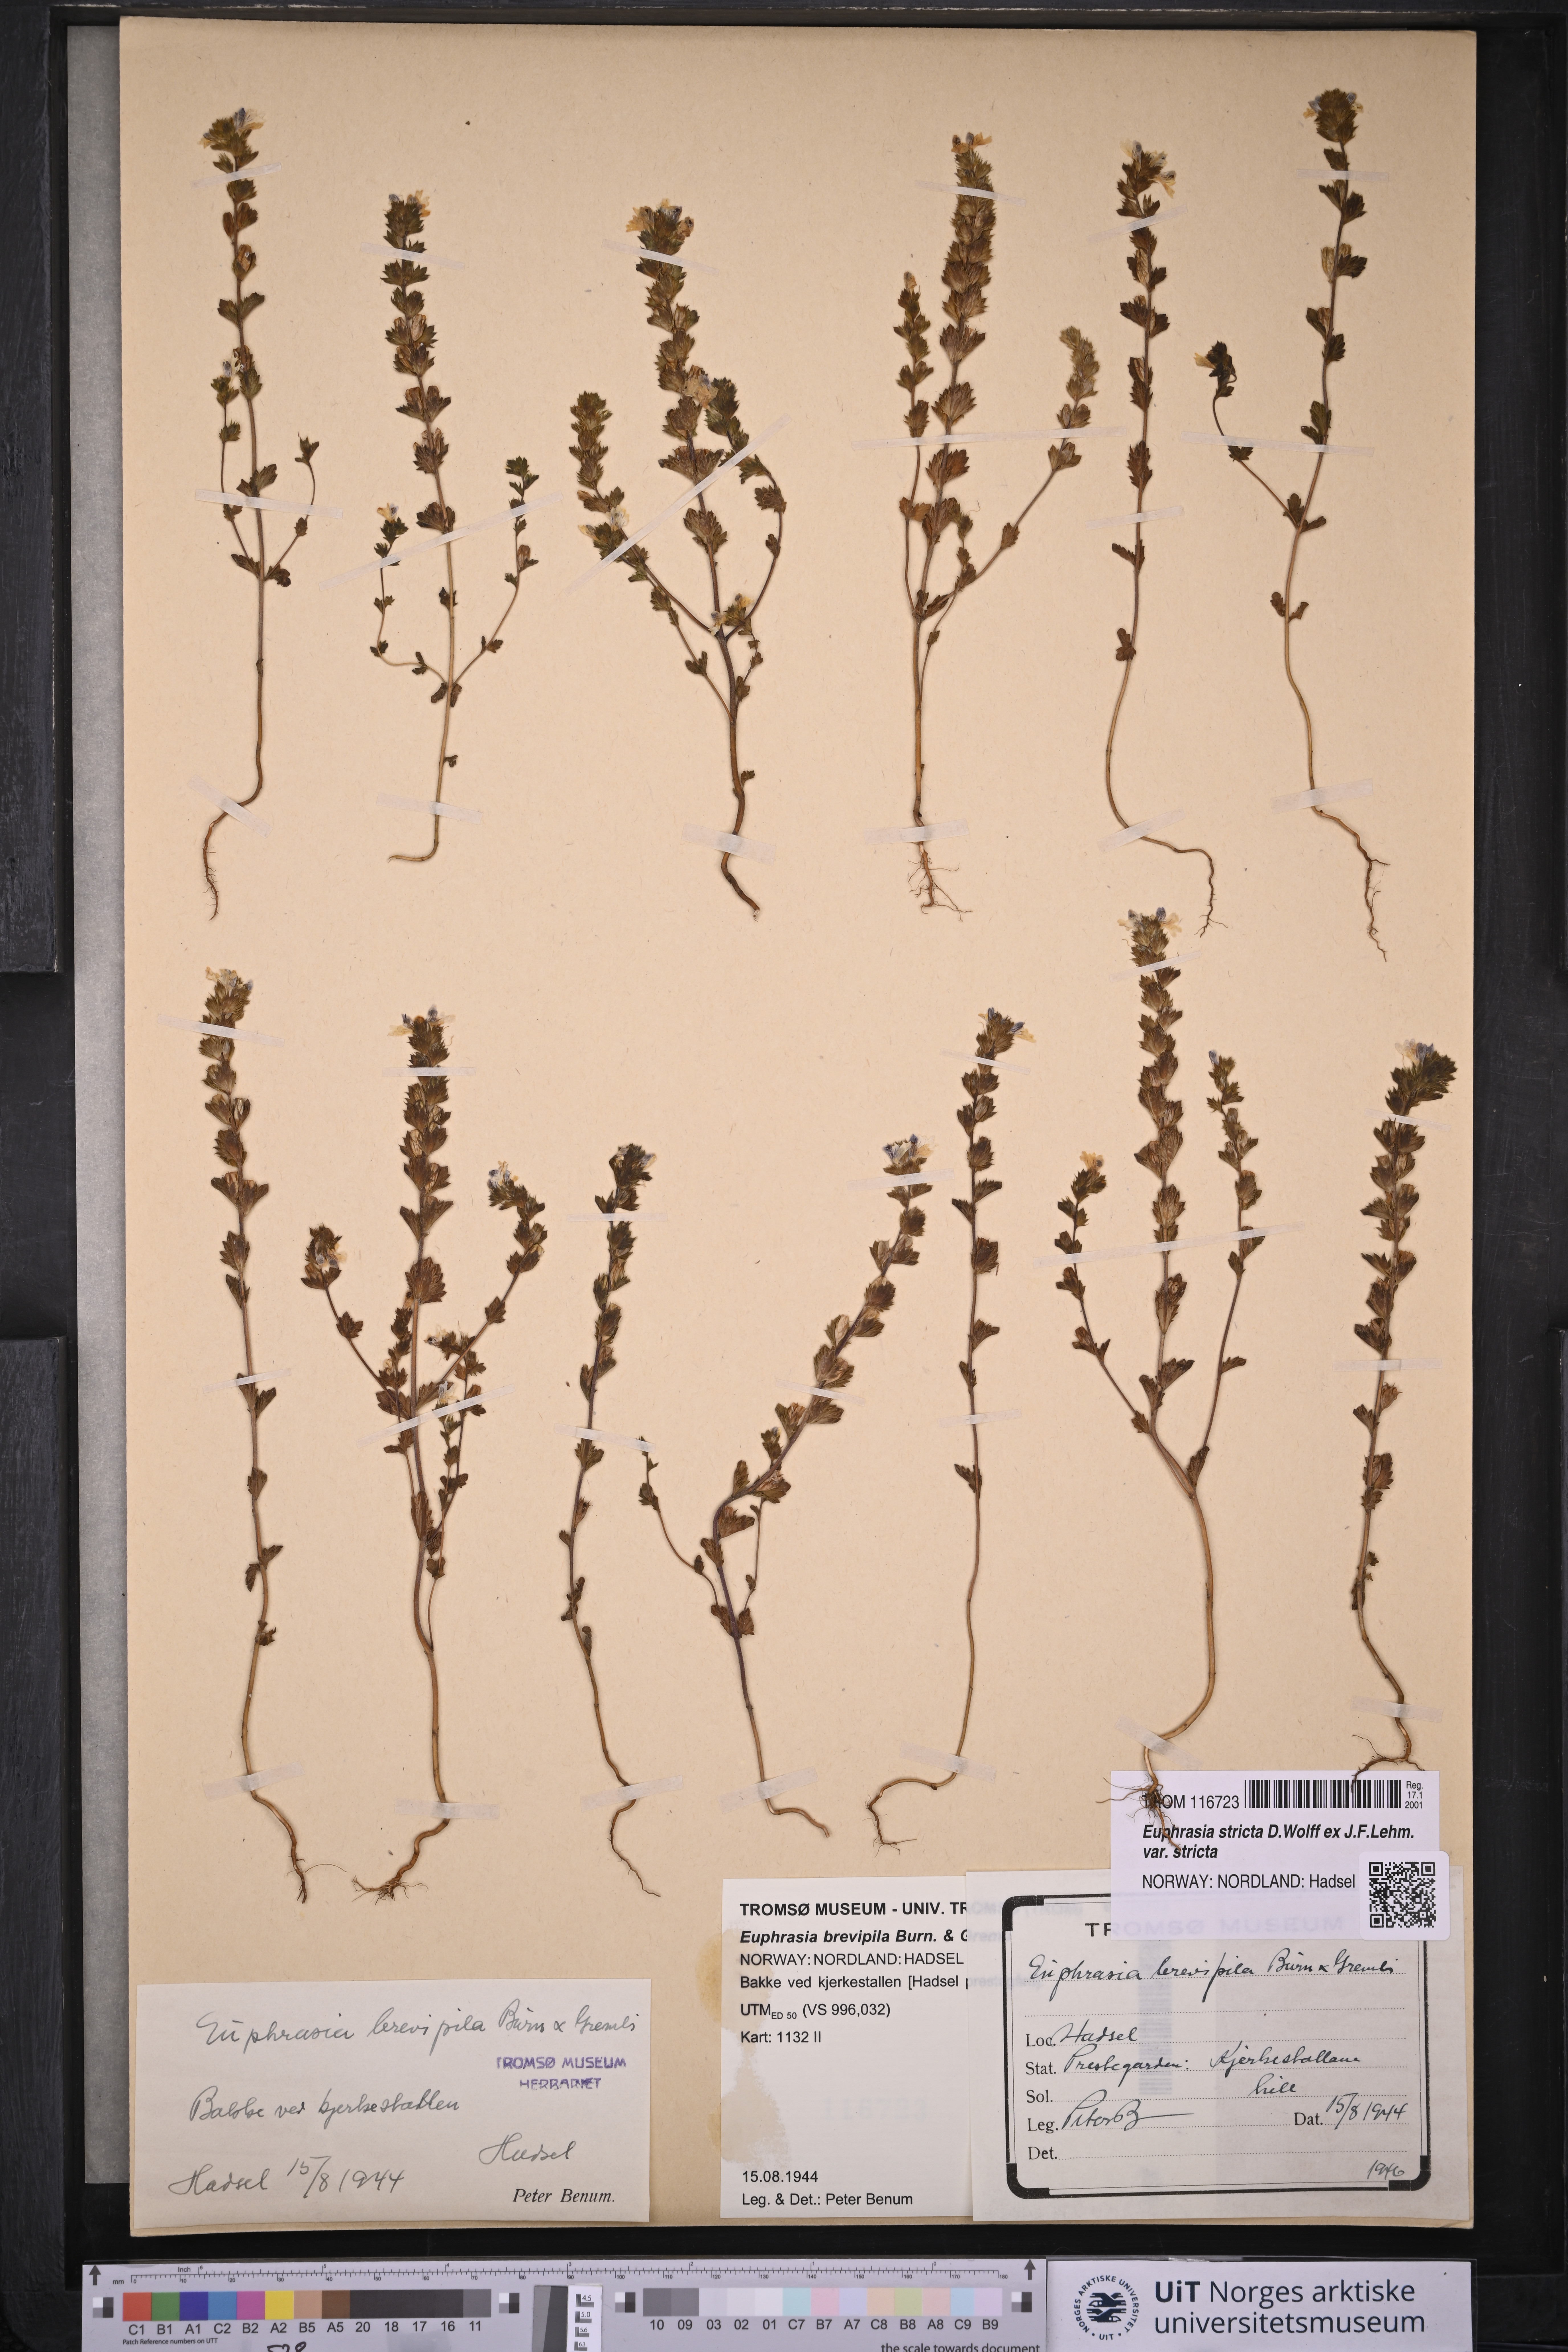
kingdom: Plantae
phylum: Tracheophyta
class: Magnoliopsida
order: Lamiales
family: Orobanchaceae
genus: Euphrasia
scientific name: Euphrasia vernalis
